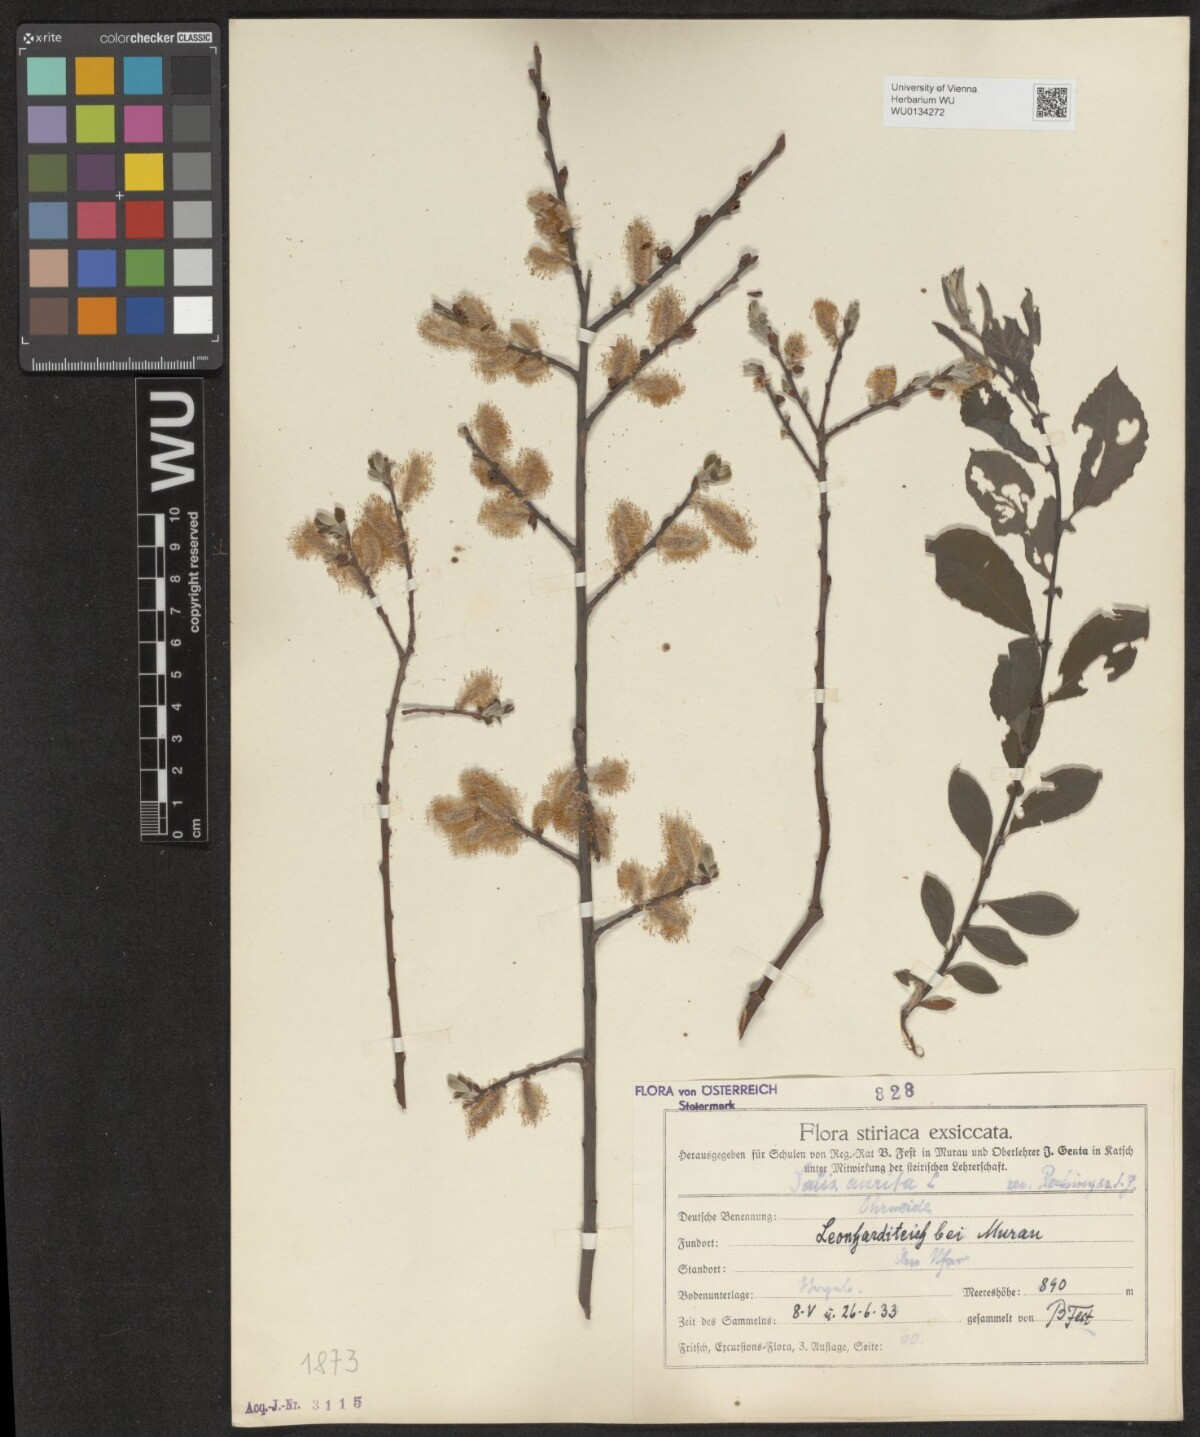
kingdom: Plantae
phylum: Tracheophyta
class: Magnoliopsida
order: Malpighiales
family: Salicaceae
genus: Salix
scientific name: Salix aurita
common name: Eared willow
